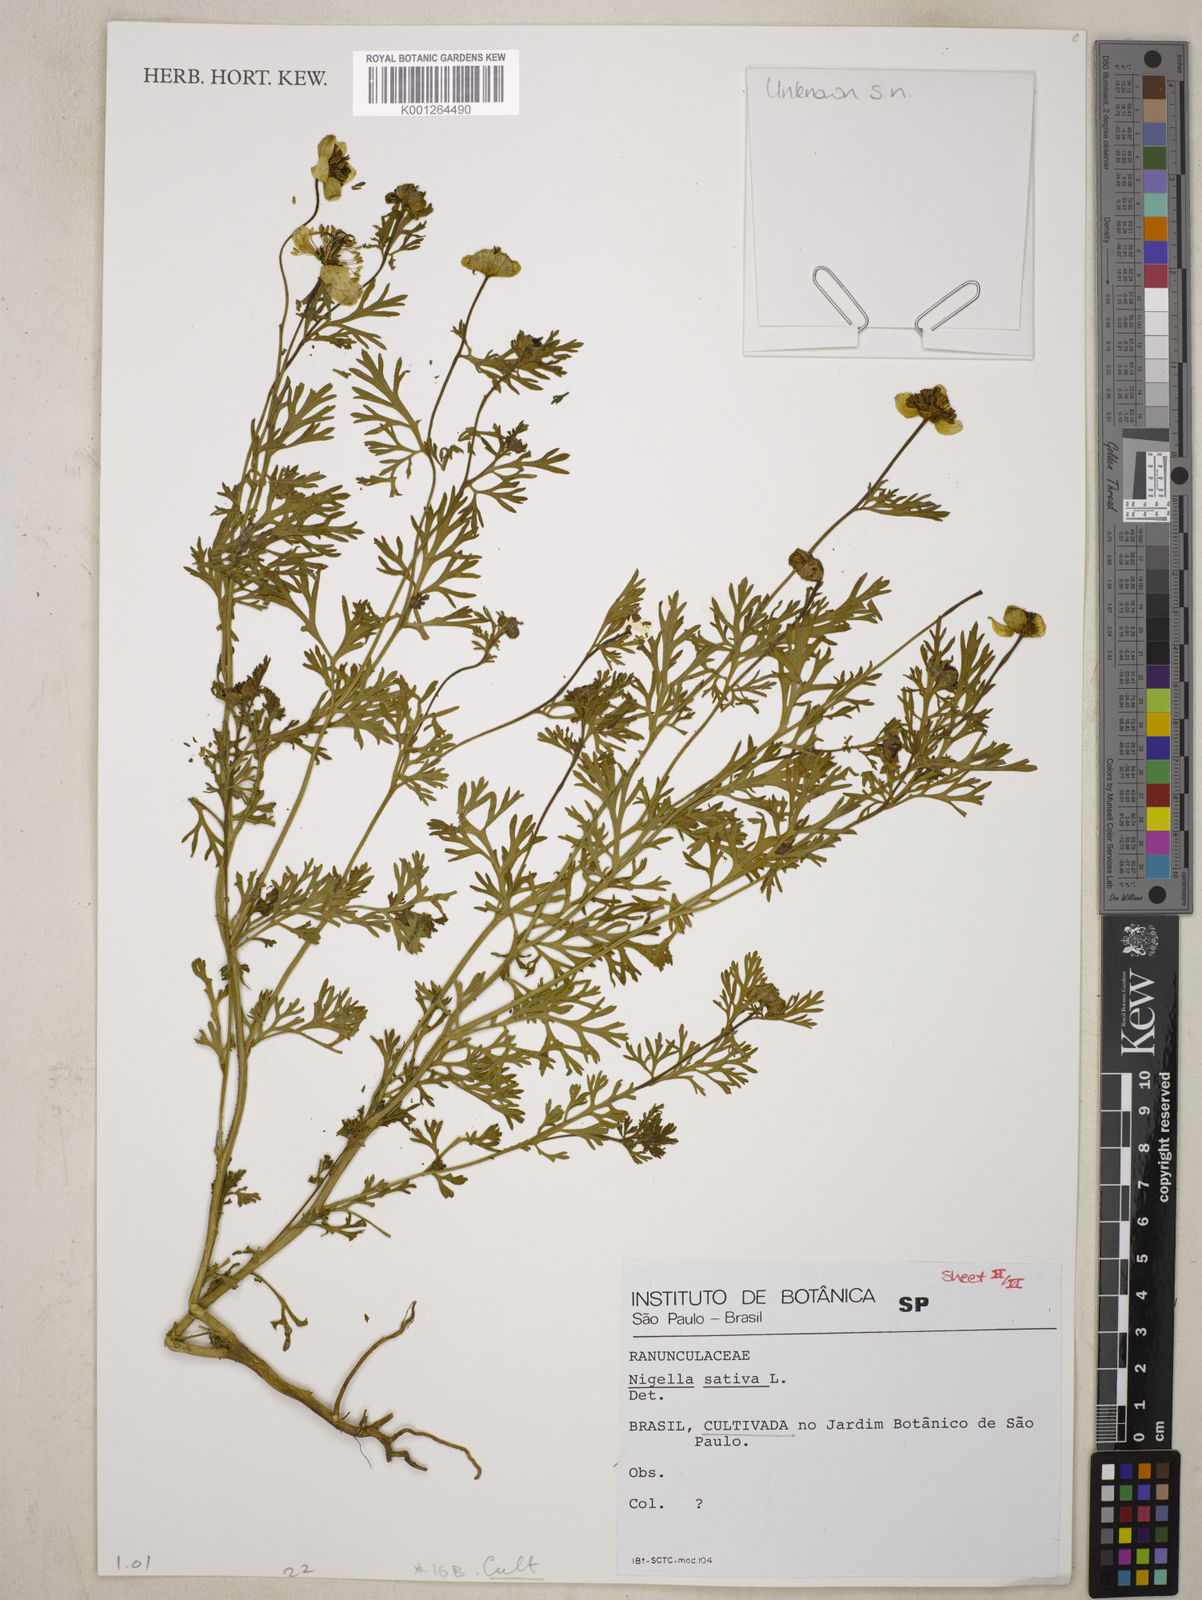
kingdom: Plantae
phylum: Tracheophyta
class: Magnoliopsida
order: Ranunculales
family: Ranunculaceae
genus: Nigella
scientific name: Nigella sativa
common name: Black-cumin
